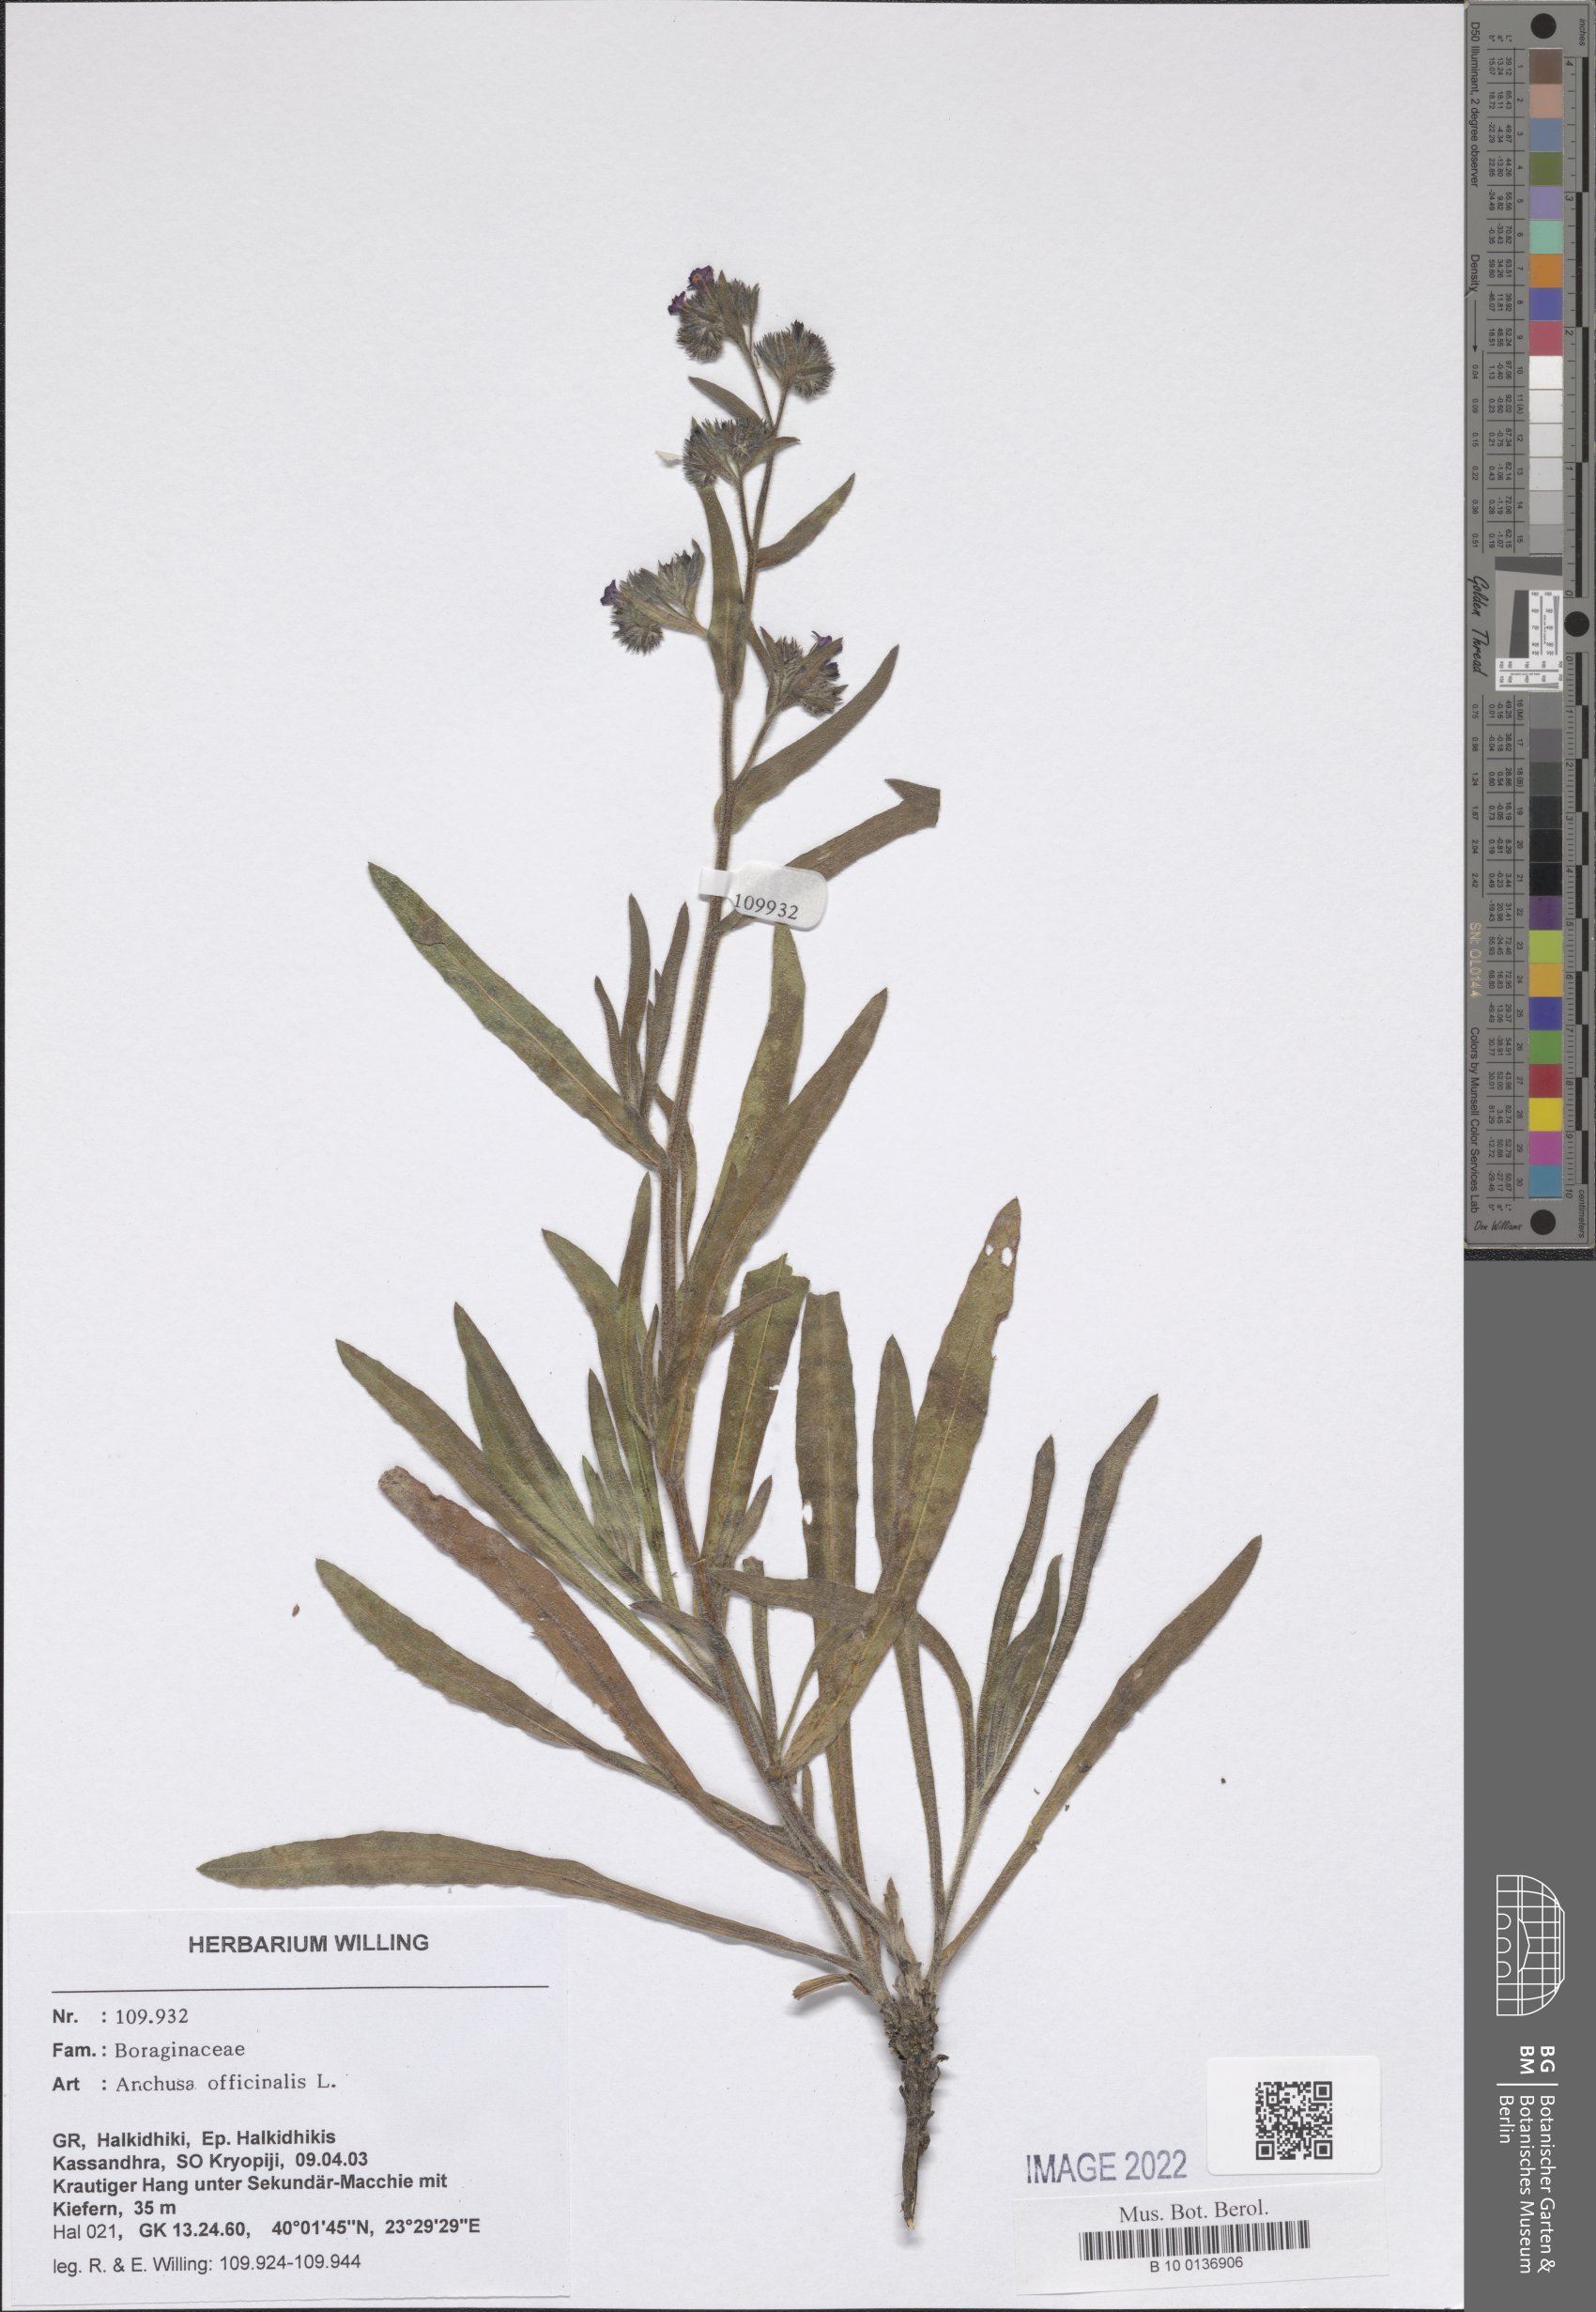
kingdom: Plantae
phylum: Tracheophyta
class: Magnoliopsida
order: Boraginales
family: Boraginaceae
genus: Anchusa
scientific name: Anchusa officinalis
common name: Alkanet
